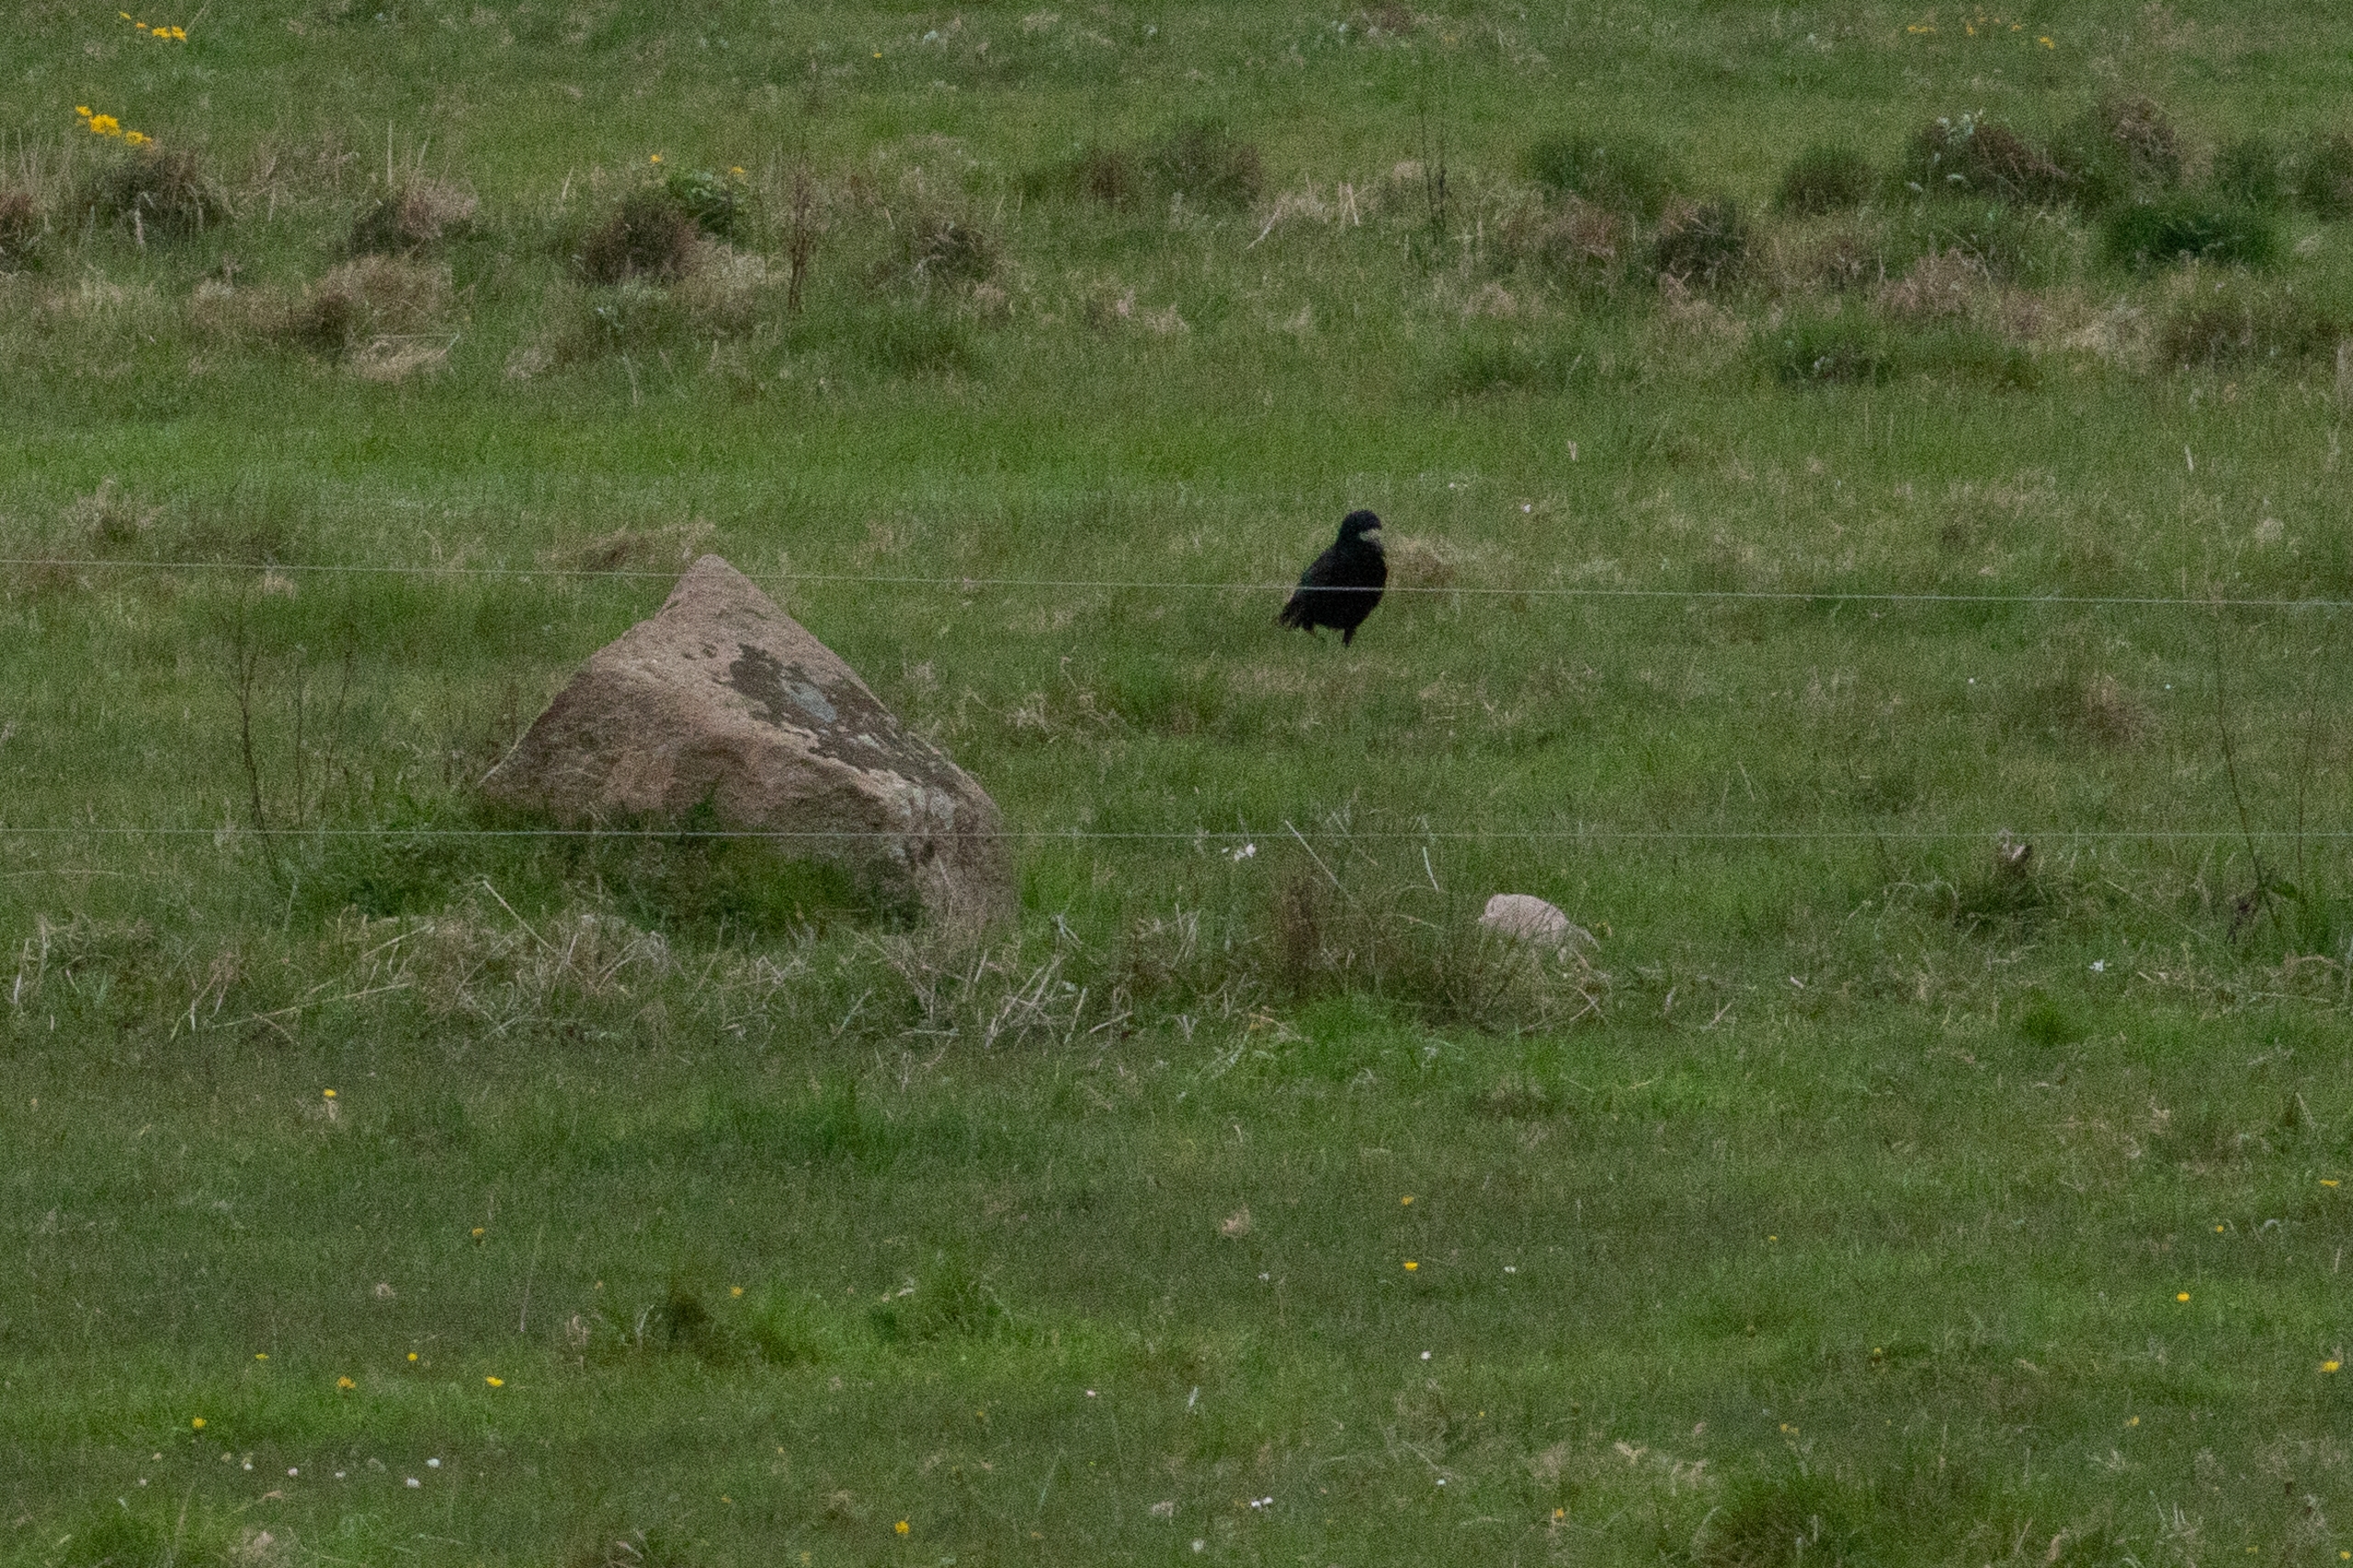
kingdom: Animalia
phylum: Chordata
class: Aves
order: Passeriformes
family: Corvidae
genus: Corvus
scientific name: Corvus frugilegus
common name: Råge
